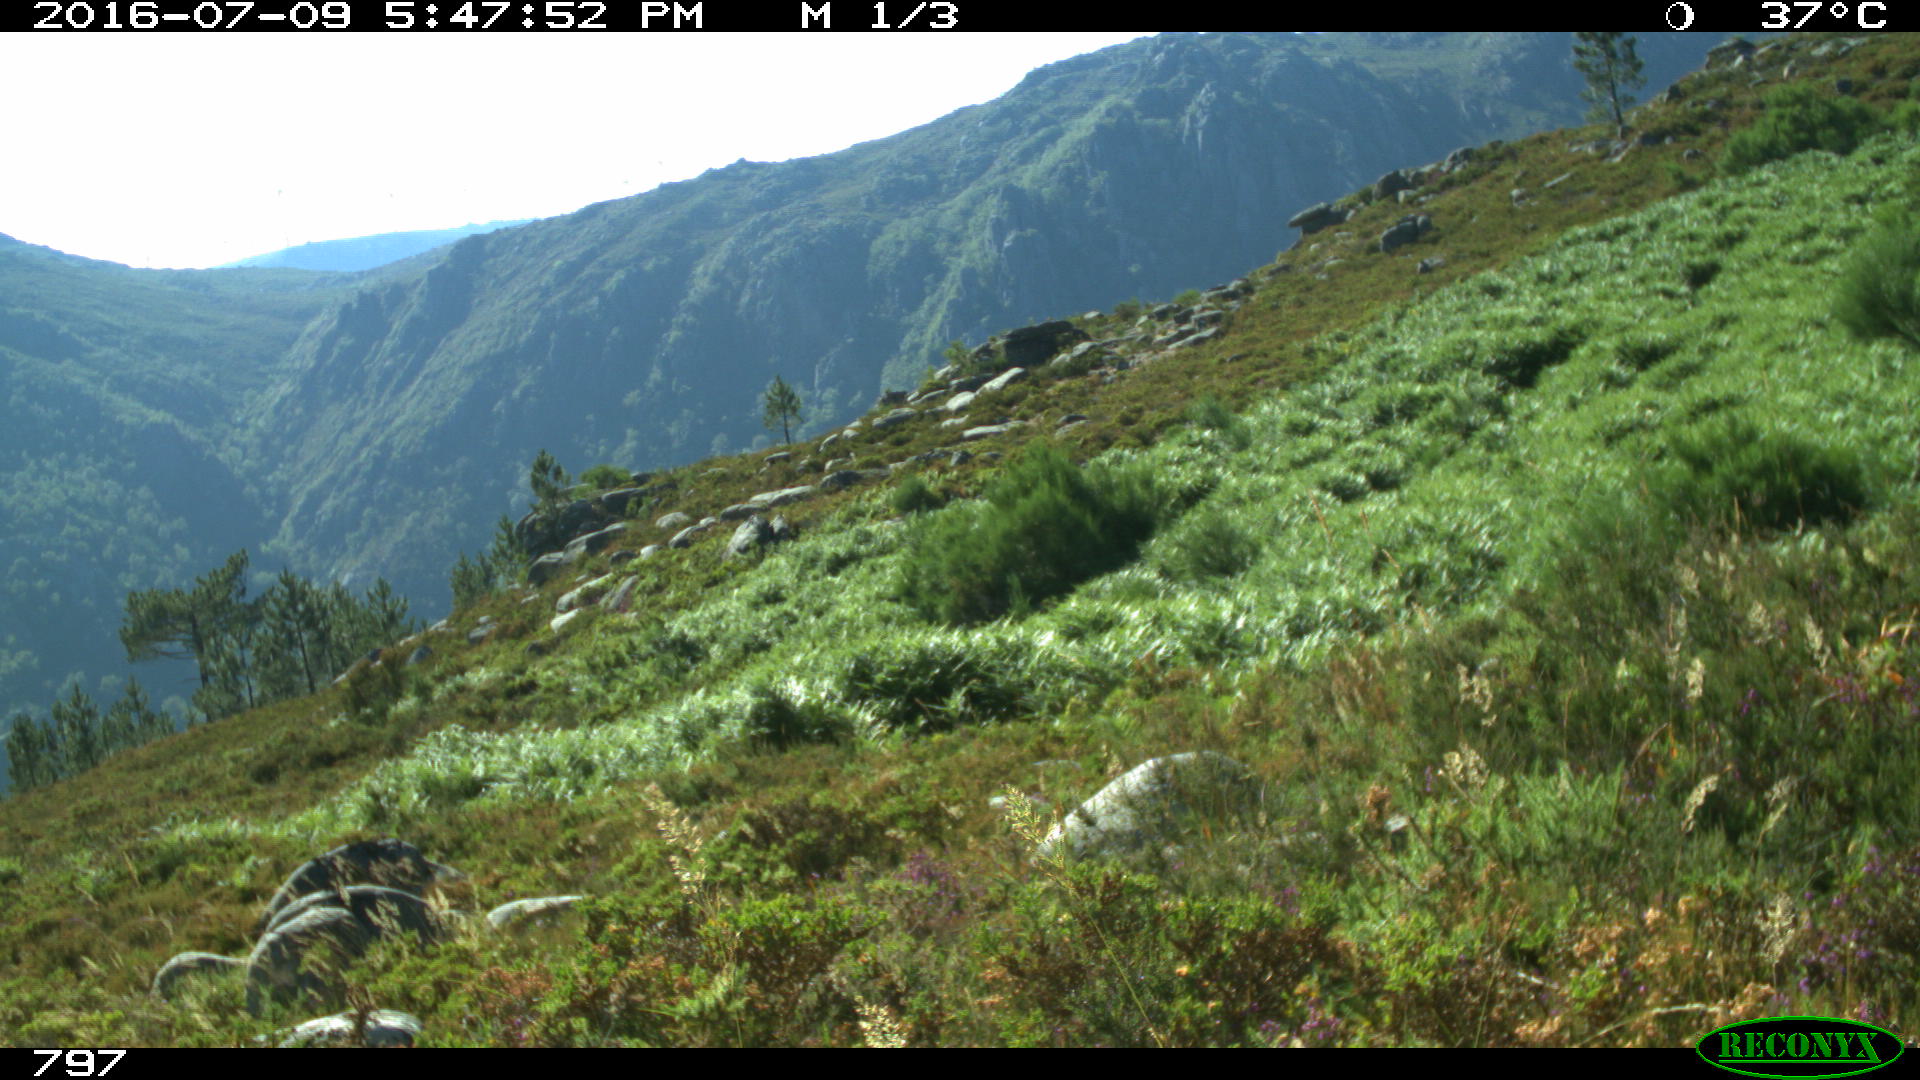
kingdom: Animalia
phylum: Chordata
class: Mammalia
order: Perissodactyla
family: Equidae
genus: Equus
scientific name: Equus caballus
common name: Horse
